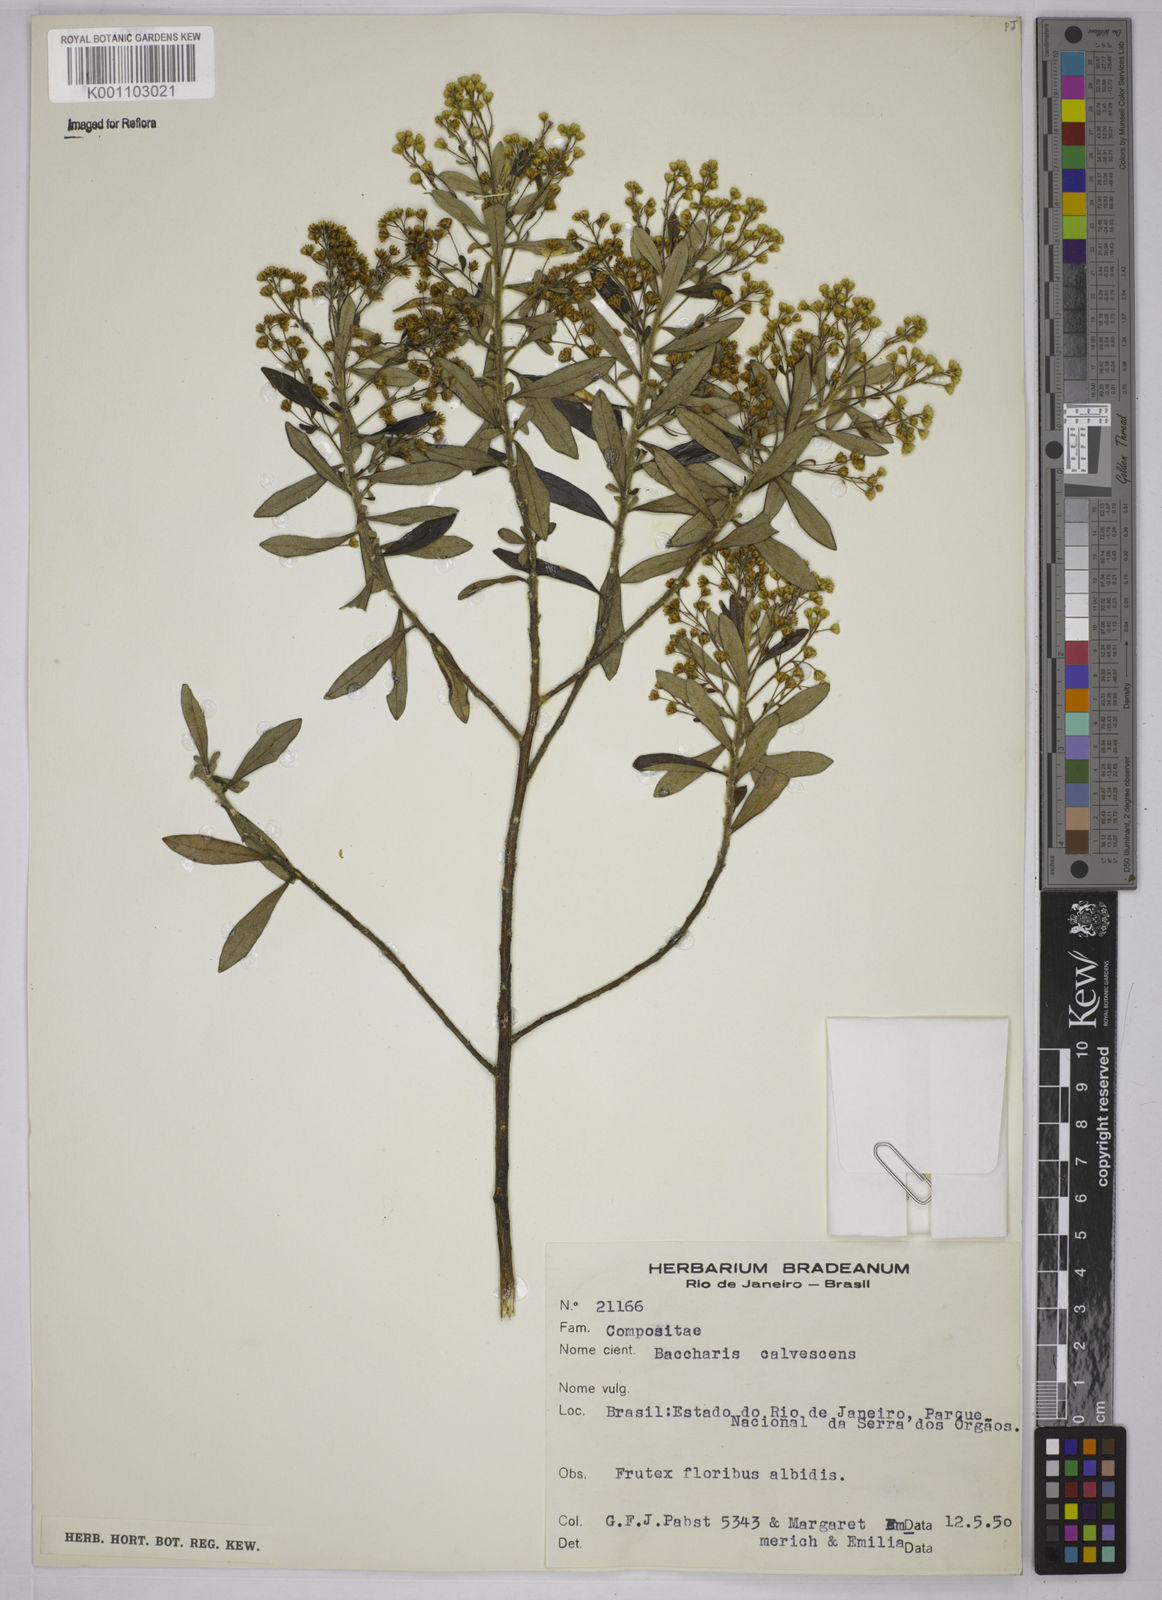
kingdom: Plantae
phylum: Tracheophyta
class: Magnoliopsida
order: Asterales
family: Asteraceae
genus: Baccharis
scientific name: Baccharis calvescens
